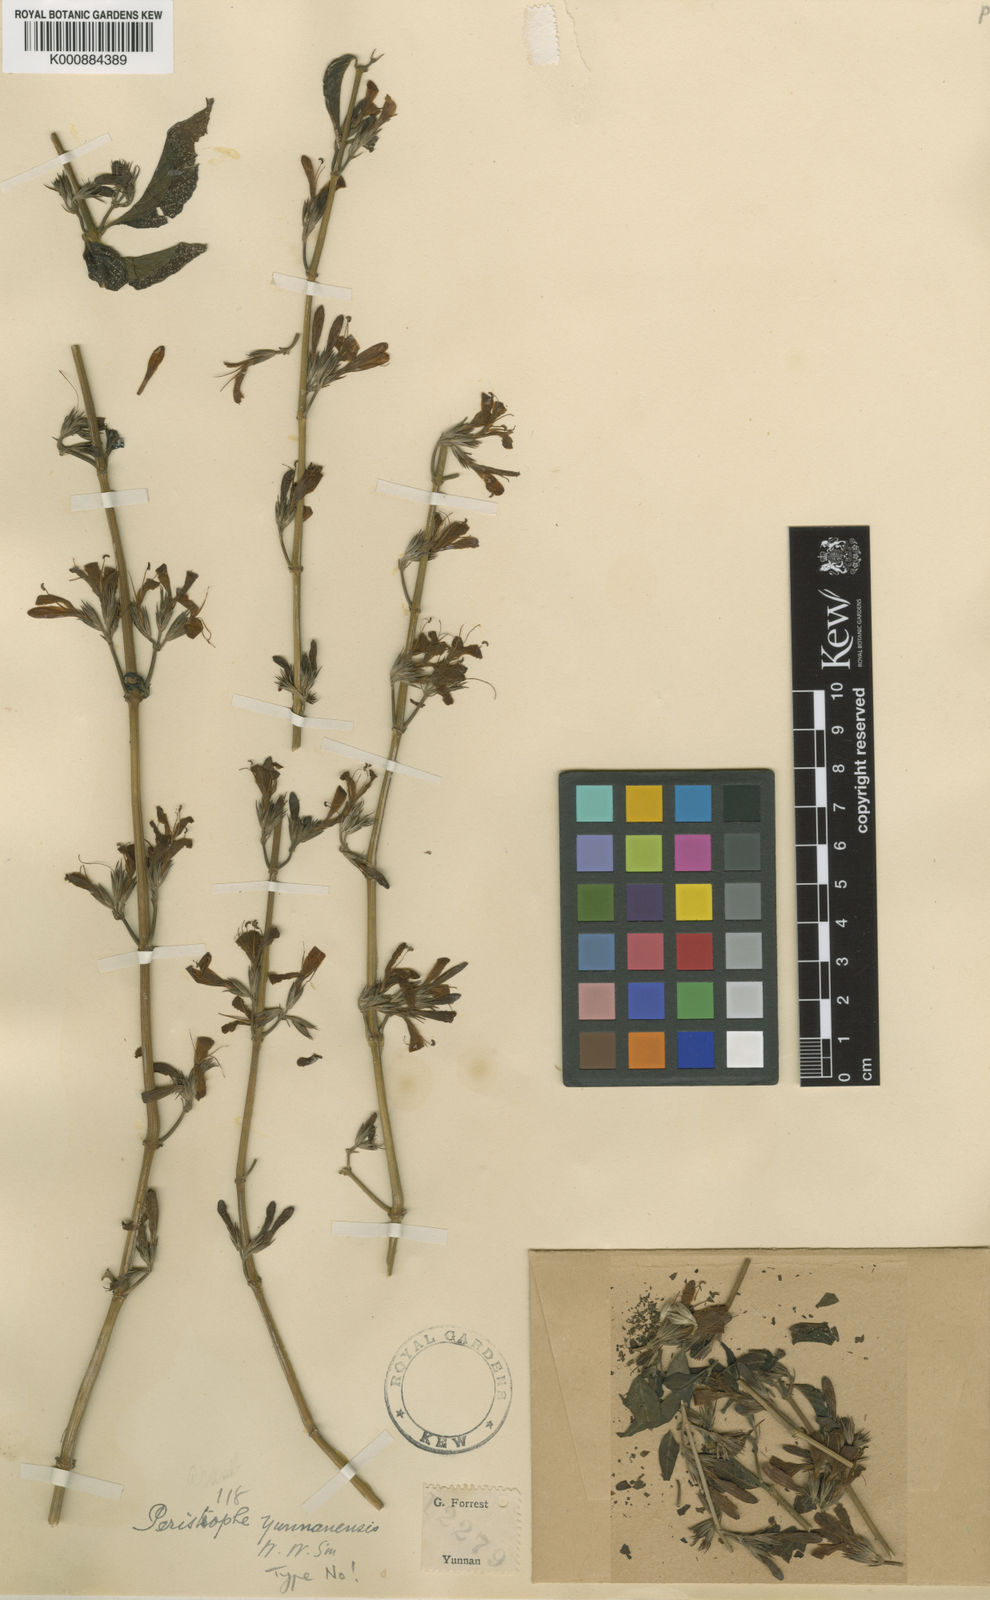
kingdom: Plantae
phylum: Tracheophyta
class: Magnoliopsida
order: Lamiales
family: Acanthaceae
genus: Dicliptera
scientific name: Dicliptera yunnanensis
